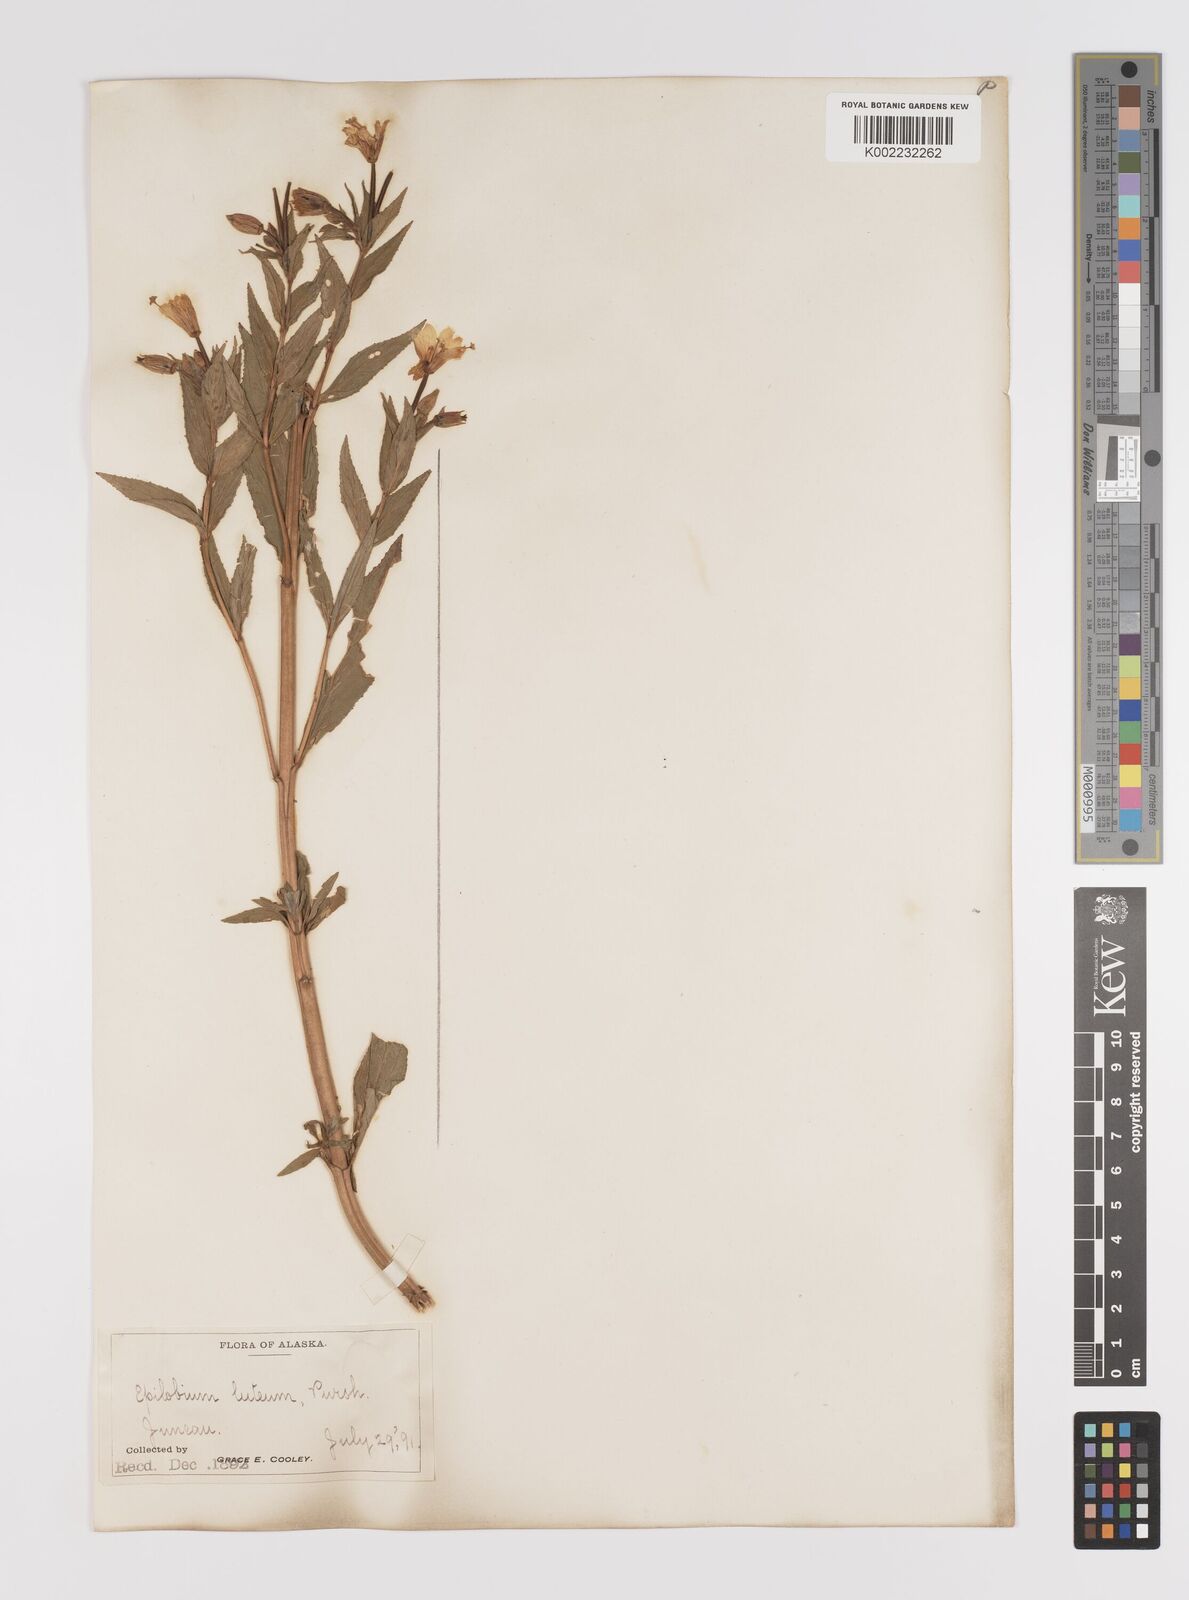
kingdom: Plantae
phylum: Tracheophyta
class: Magnoliopsida
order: Myrtales
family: Onagraceae
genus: Epilobium
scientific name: Epilobium luteum
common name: Yellow willowherb
